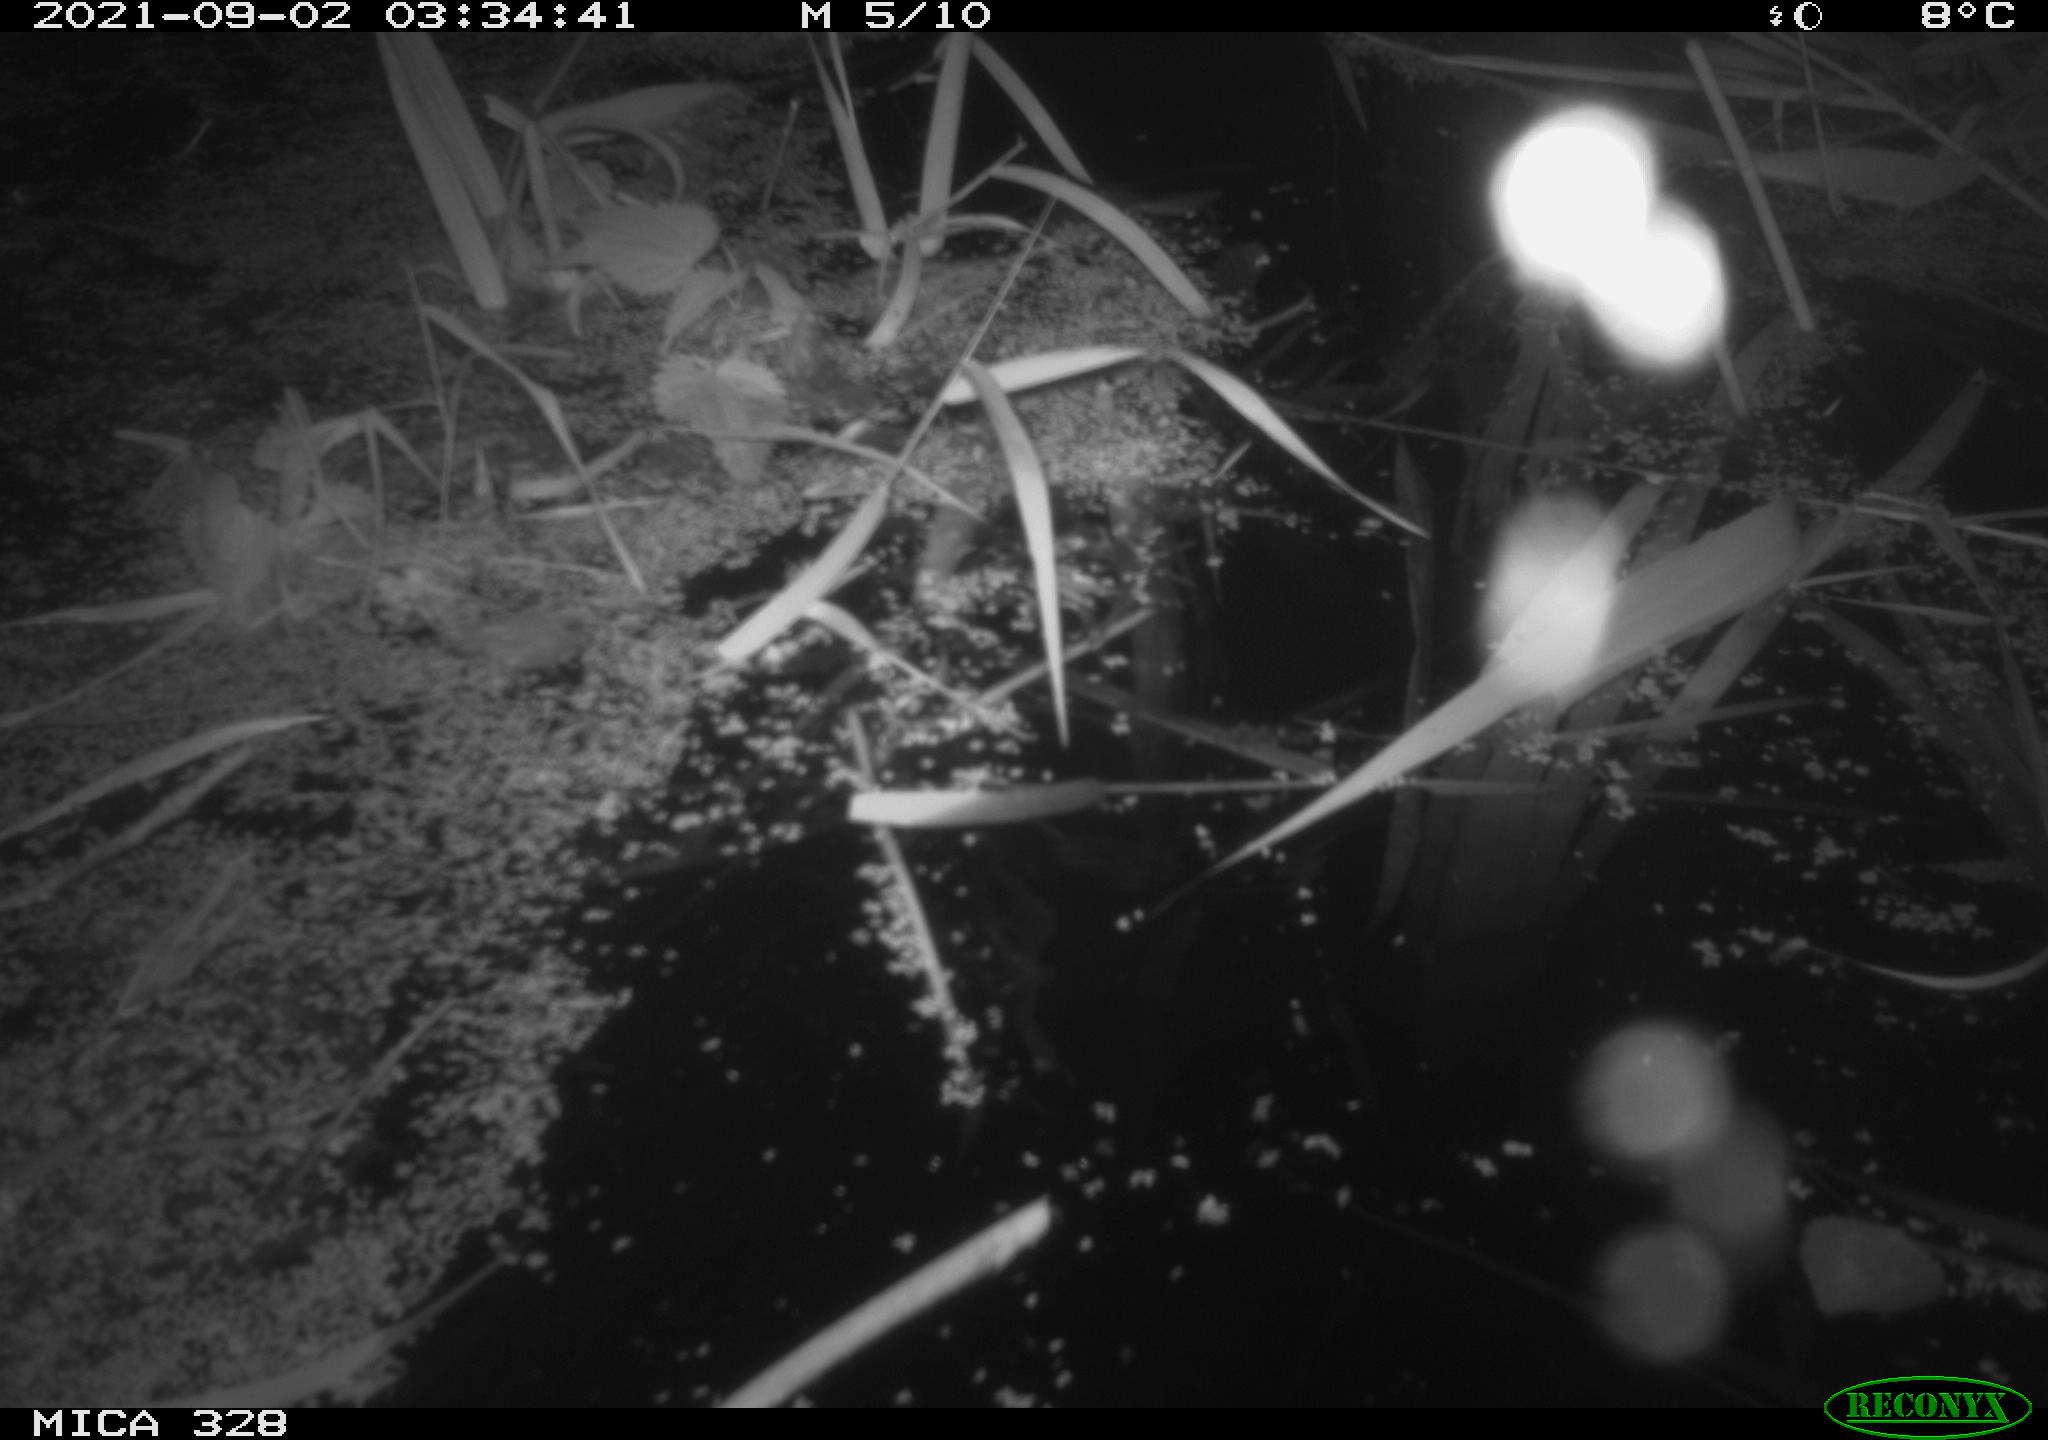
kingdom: Animalia
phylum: Chordata
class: Mammalia
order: Rodentia
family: Cricetidae
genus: Ondatra
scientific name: Ondatra zibethicus
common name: Muskrat
